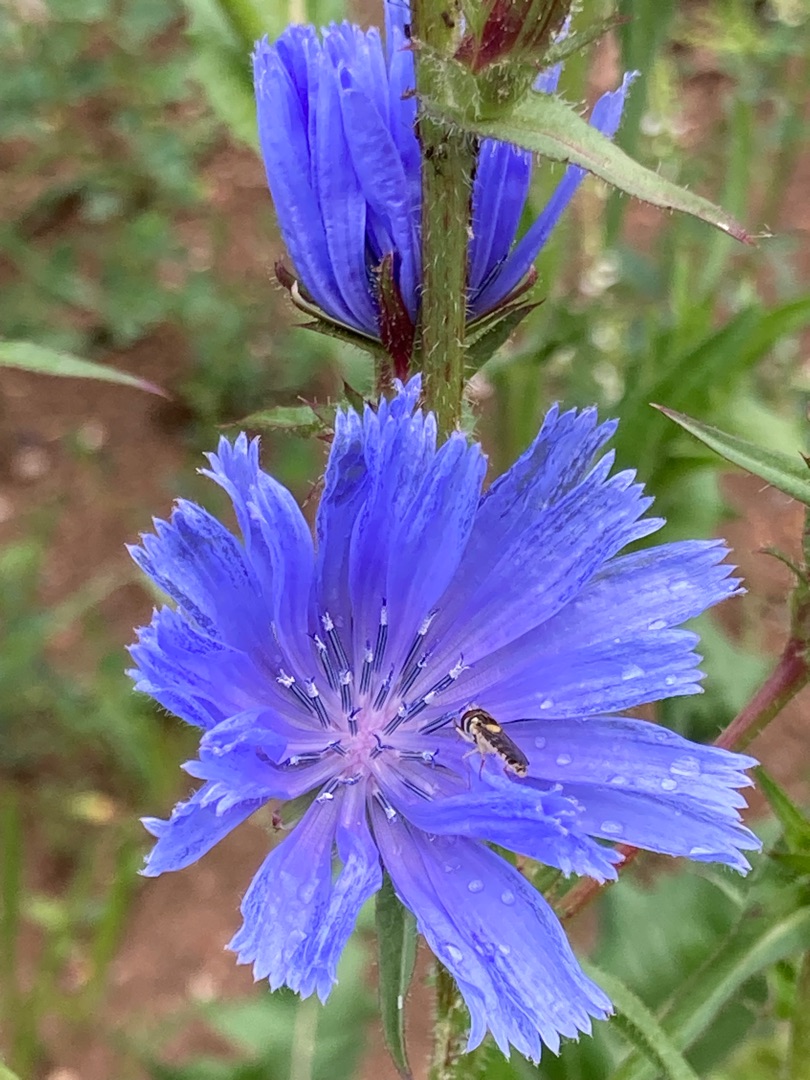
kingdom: Plantae
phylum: Tracheophyta
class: Magnoliopsida
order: Asterales
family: Asteraceae
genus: Cichorium
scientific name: Cichorium intybus
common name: Cikorie
